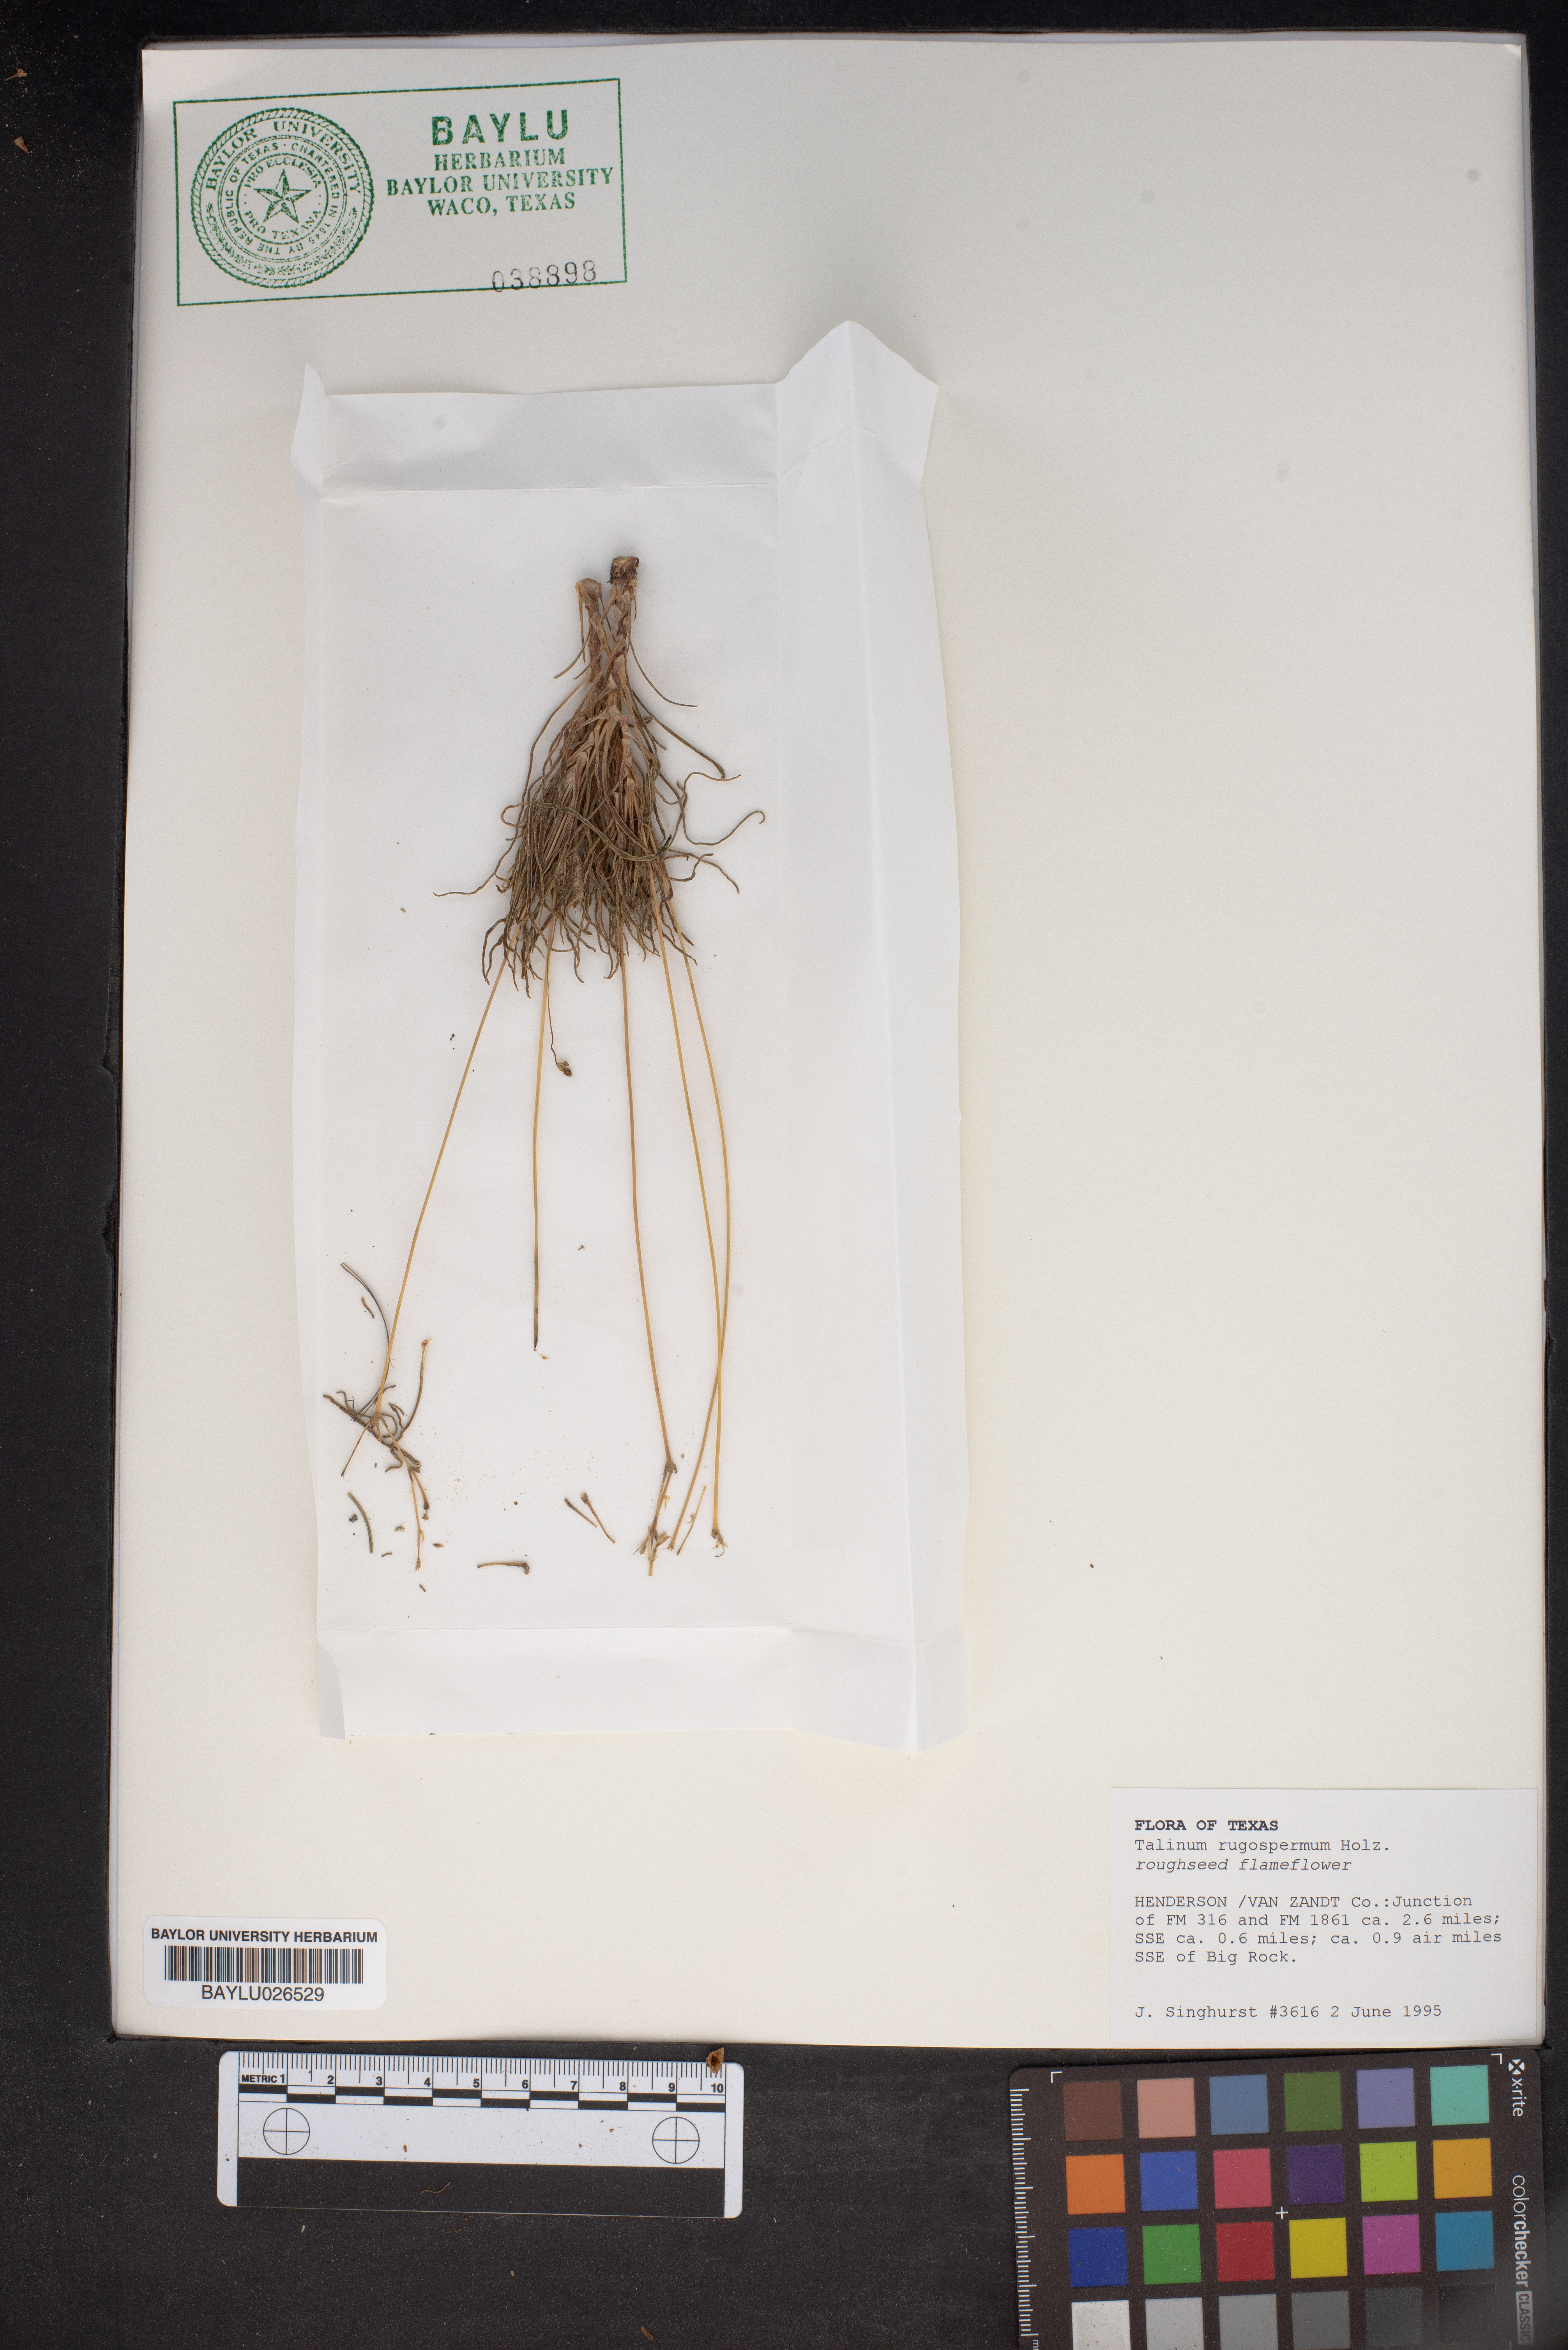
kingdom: Plantae
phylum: Tracheophyta
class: Magnoliopsida
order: Caryophyllales
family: Montiaceae
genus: Phemeranthus
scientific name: Phemeranthus rugospermus
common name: Prairie fameflower
